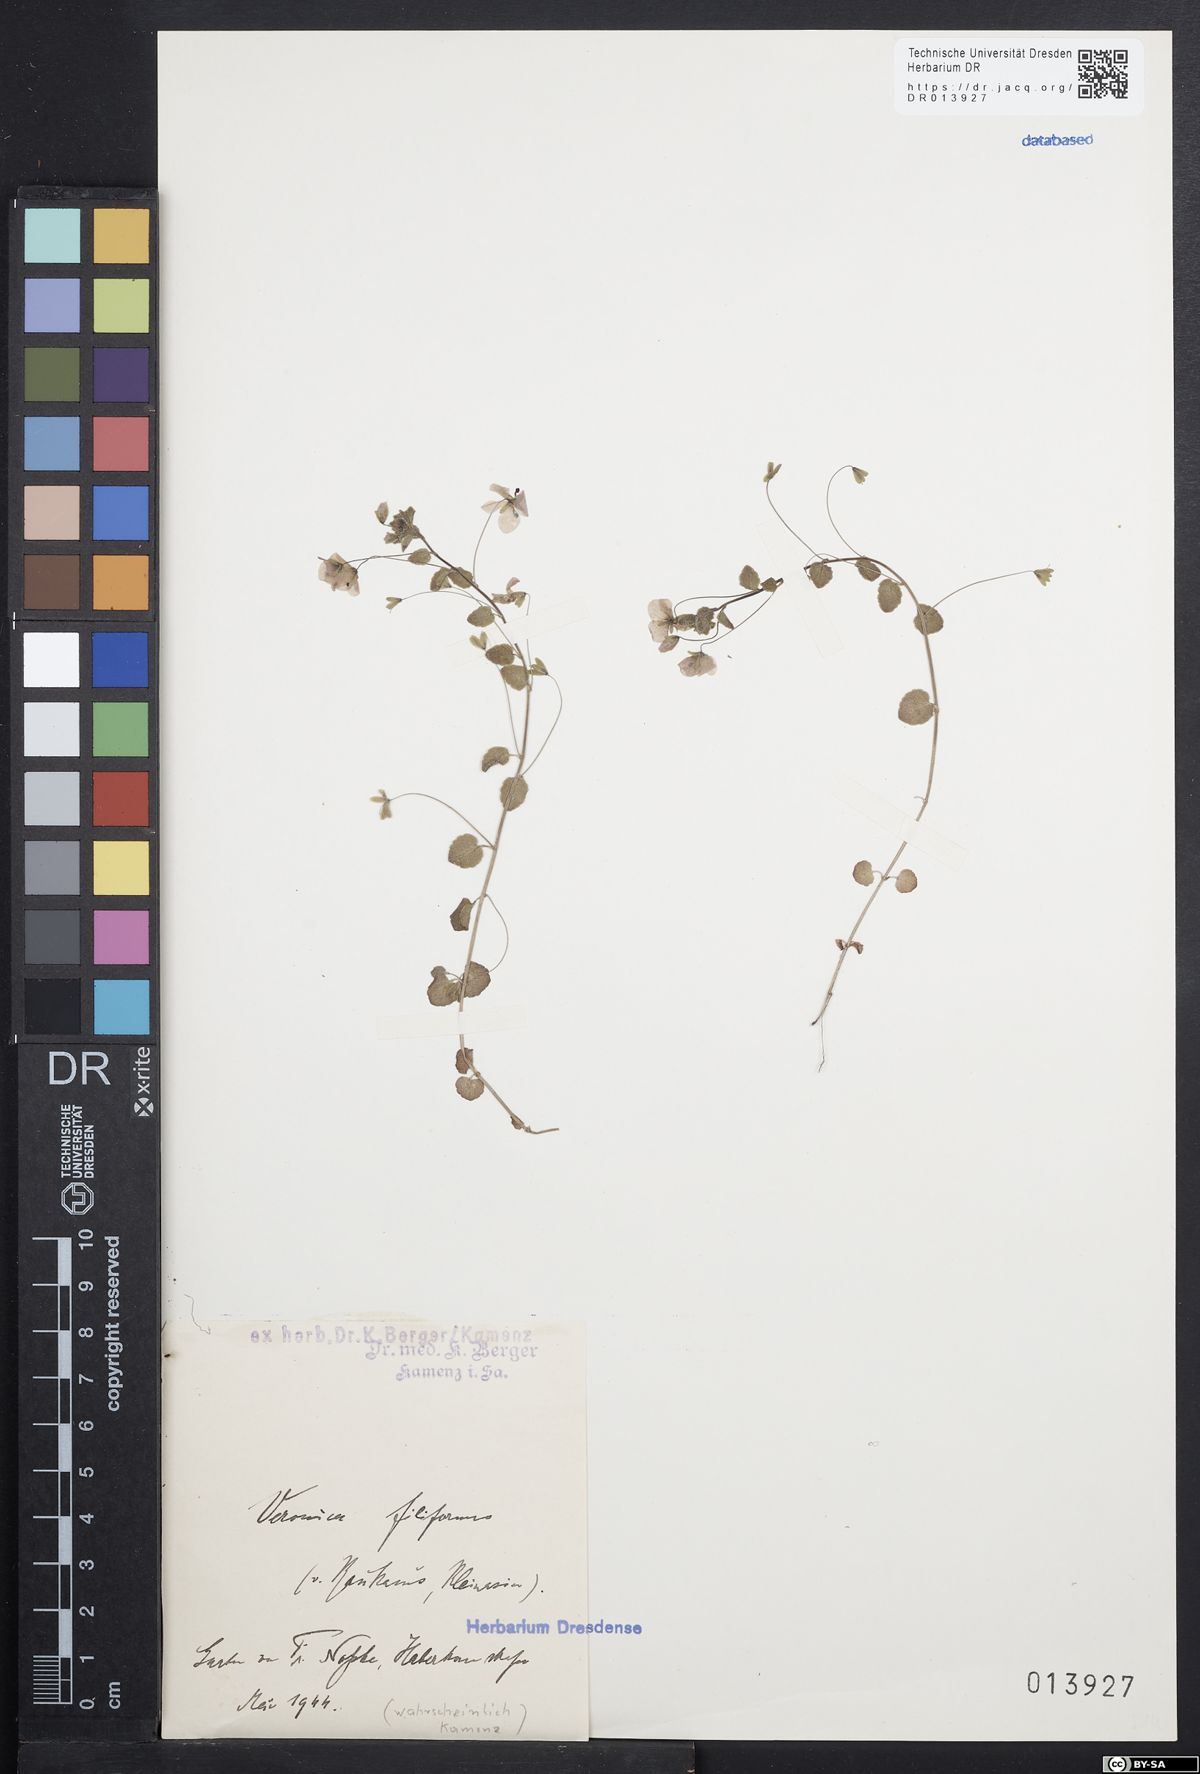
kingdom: Plantae
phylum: Tracheophyta
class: Magnoliopsida
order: Lamiales
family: Plantaginaceae
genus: Veronica
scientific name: Veronica filiformis
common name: Slender speedwell
